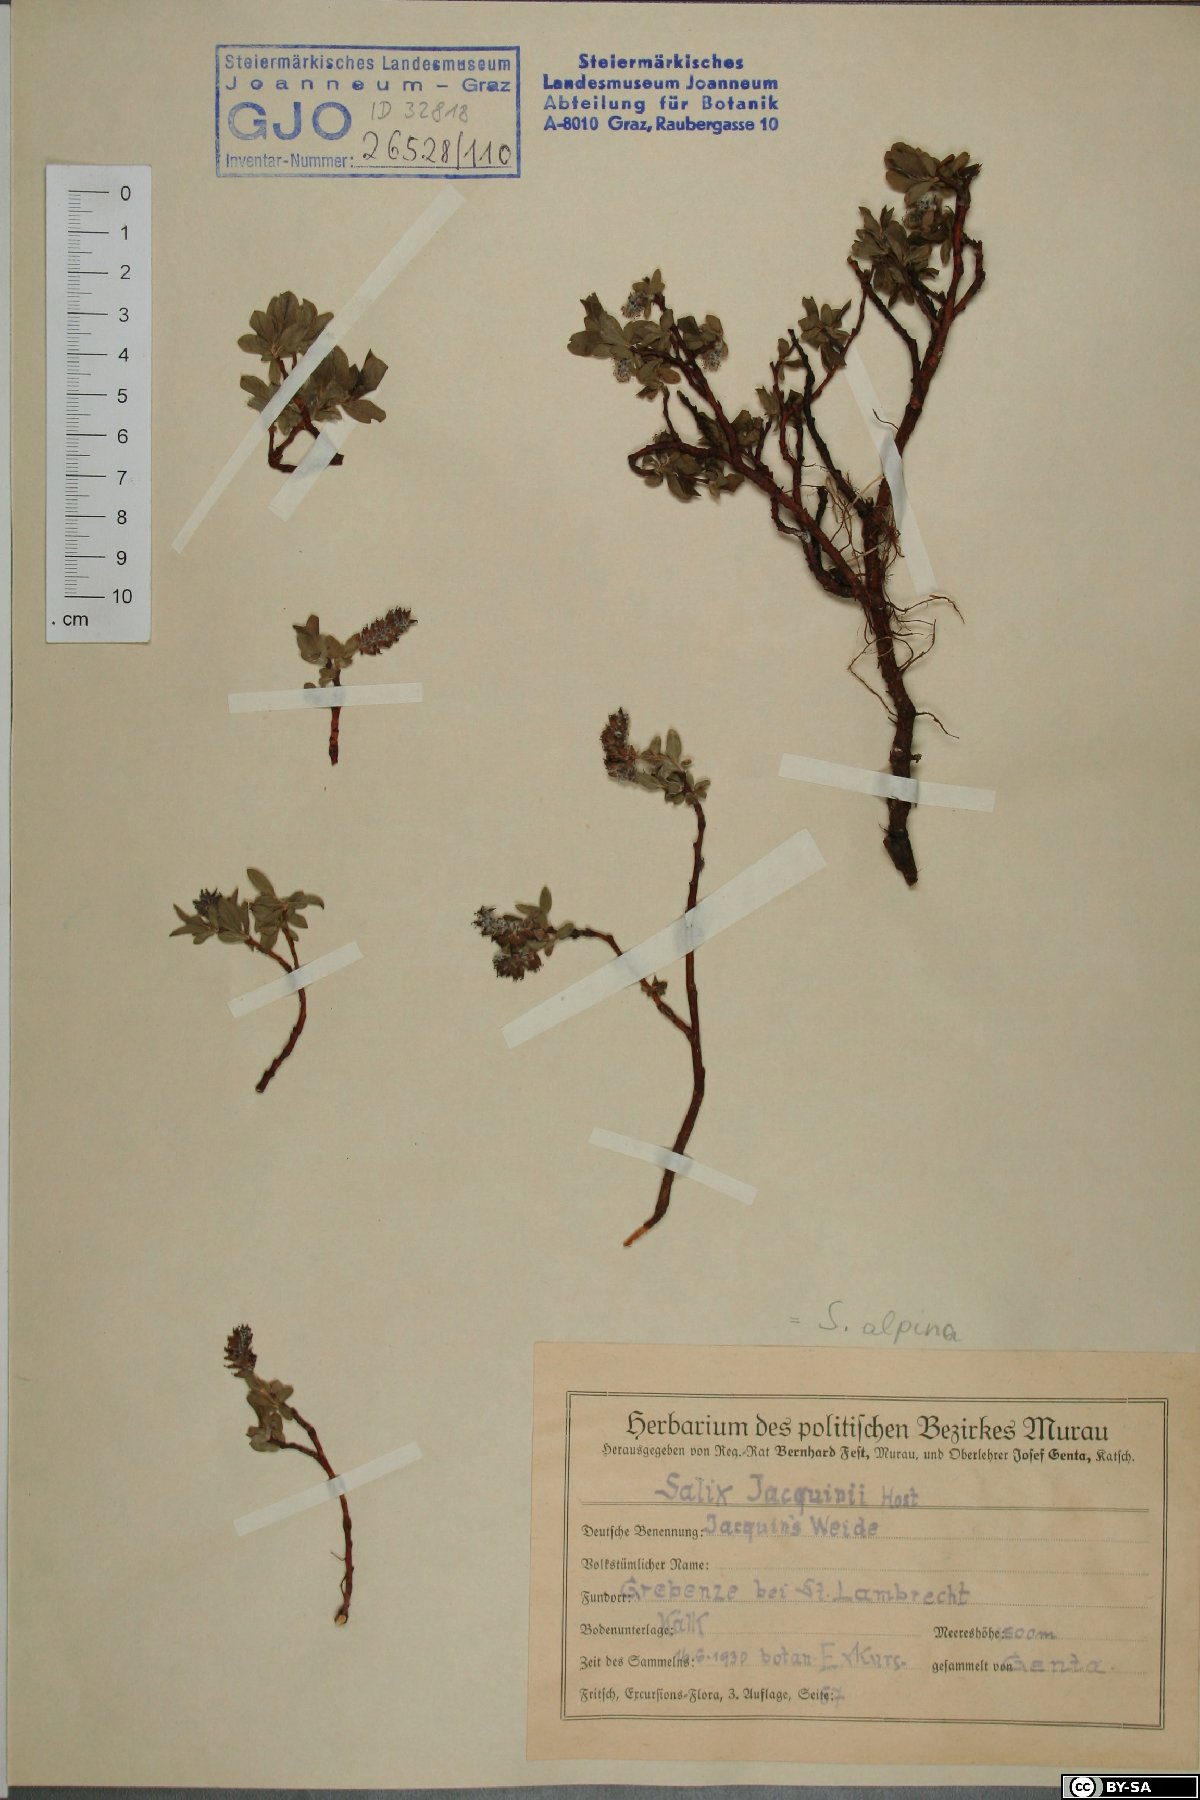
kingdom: Plantae
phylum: Tracheophyta
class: Magnoliopsida
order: Malpighiales
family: Salicaceae
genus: Salix
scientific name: Salix alpina
